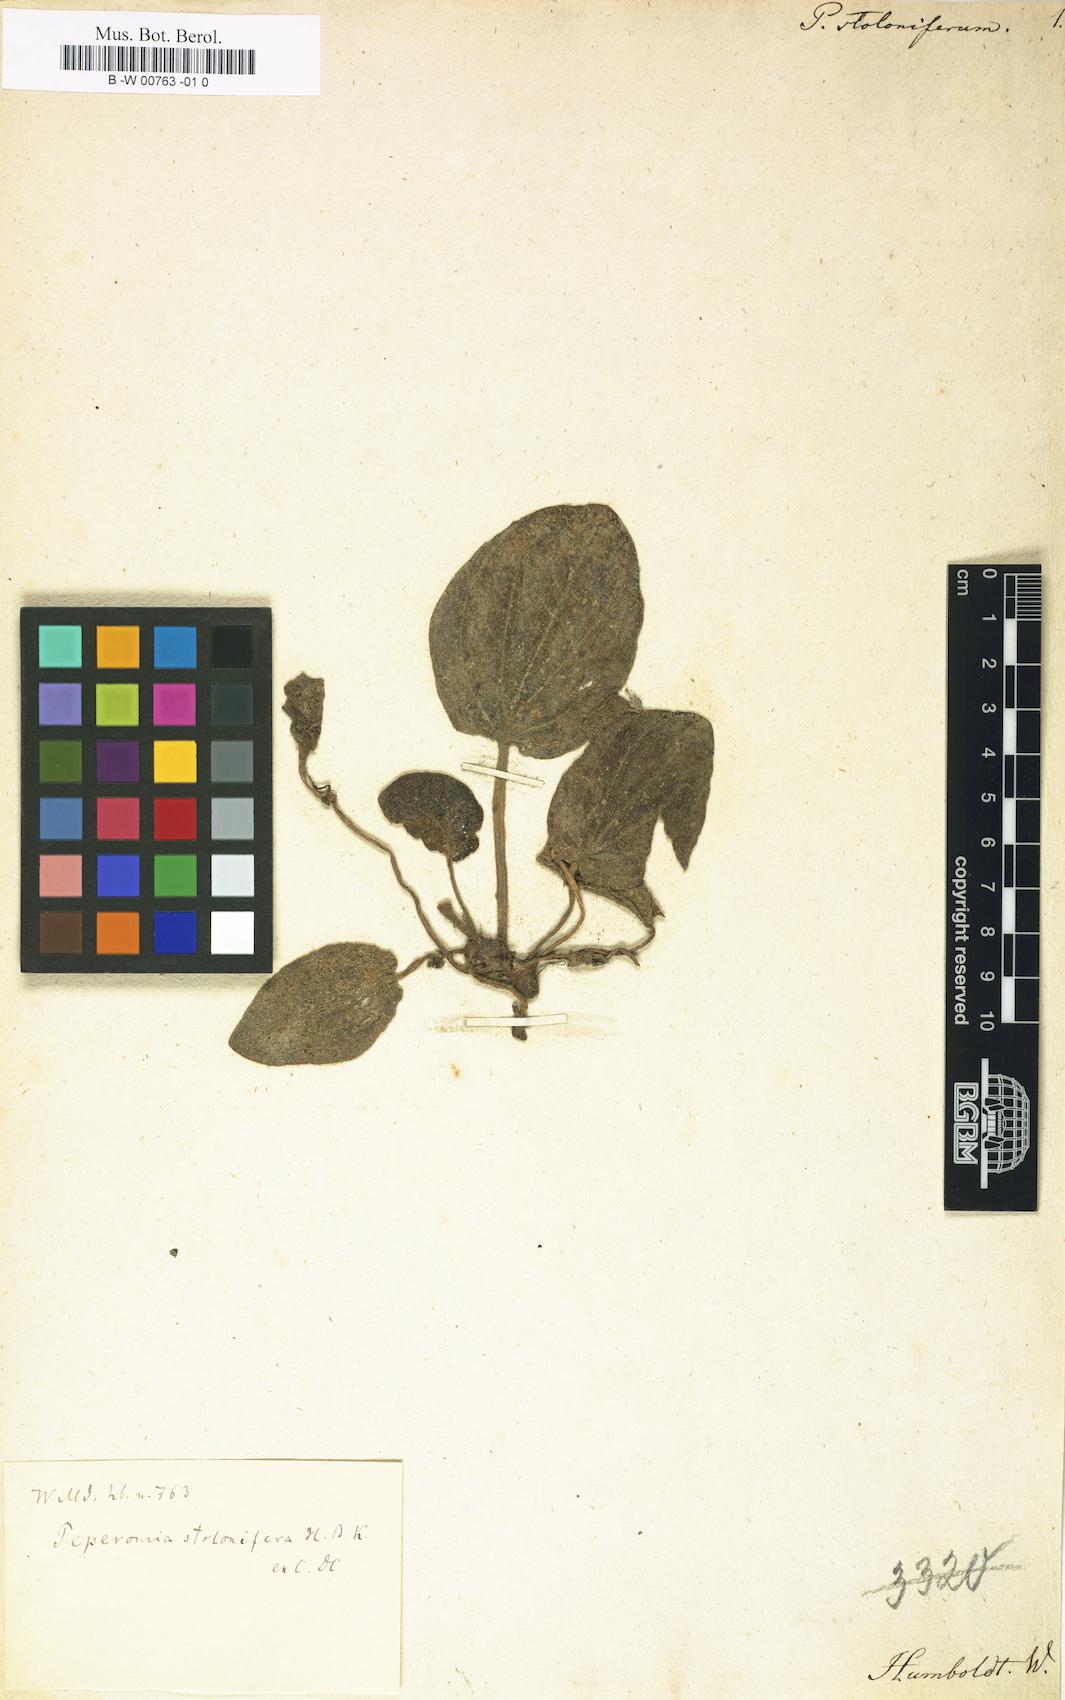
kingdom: Plantae
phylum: Tracheophyta
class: Magnoliopsida
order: Piperales
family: Piperaceae
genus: Peperomia
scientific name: Peperomia stolonifera
